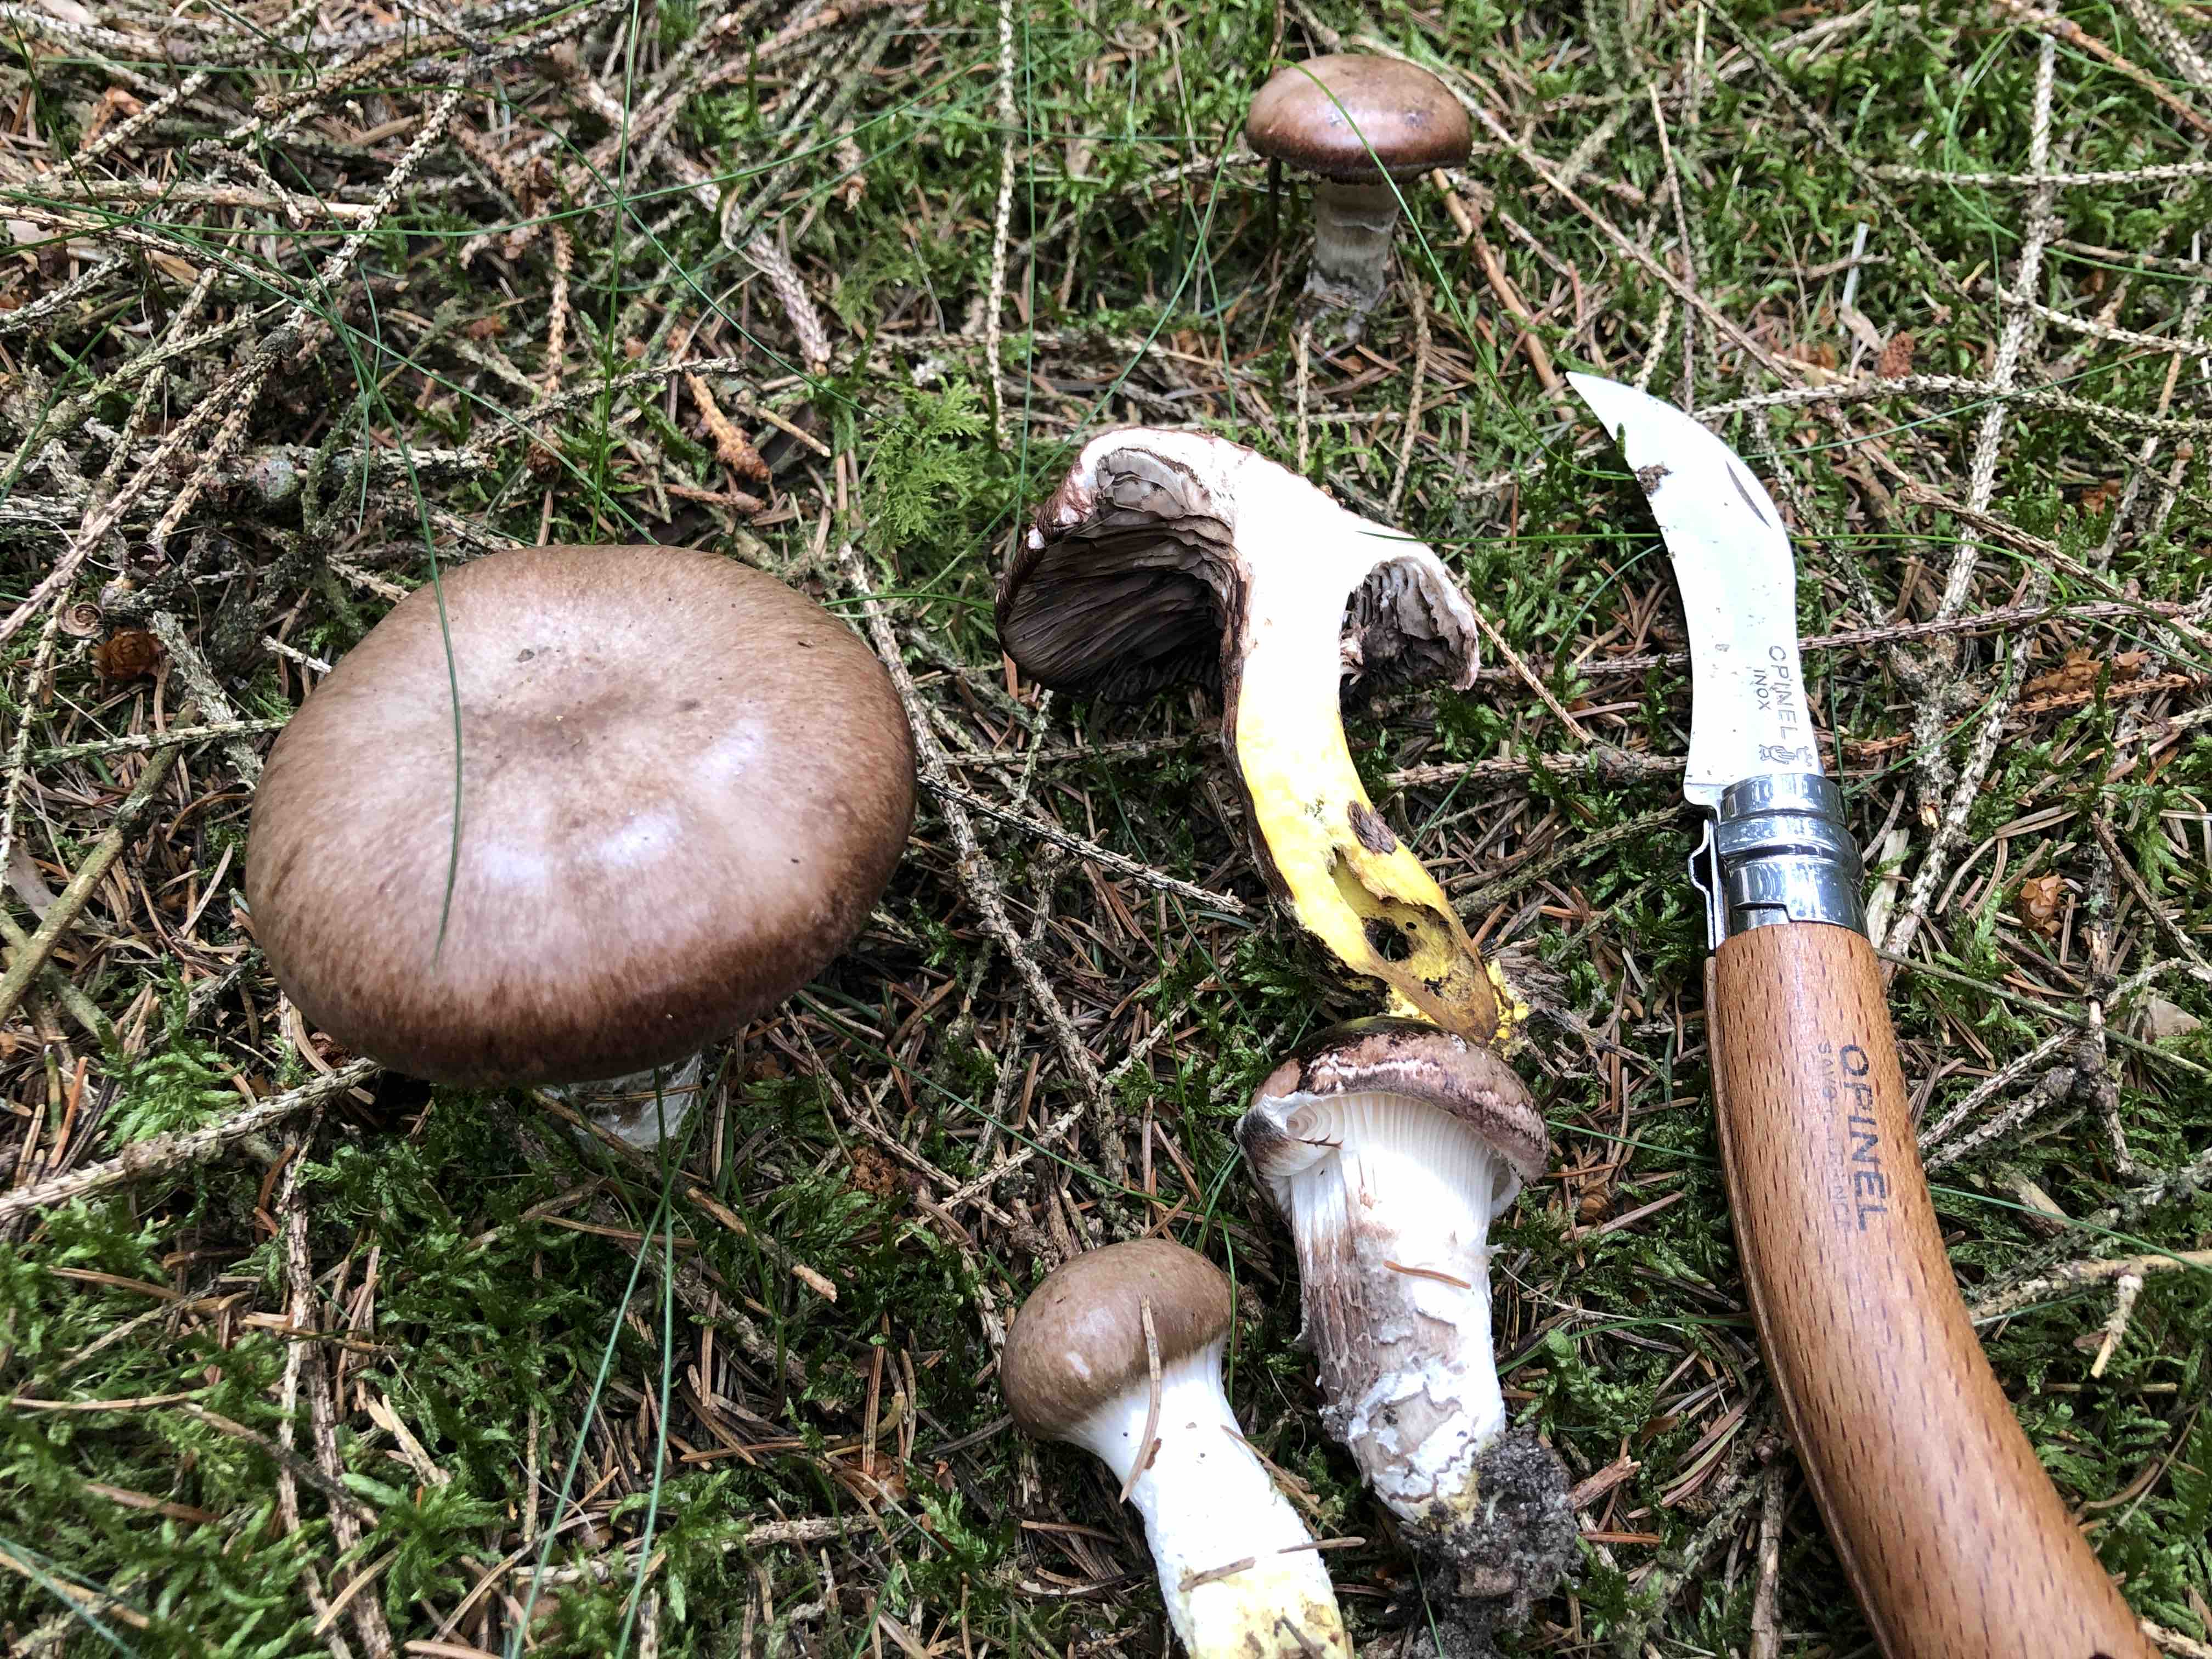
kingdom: Fungi
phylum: Basidiomycota
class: Agaricomycetes
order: Boletales
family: Gomphidiaceae
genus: Gomphidius
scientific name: Gomphidius glutinosus
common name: grå slimslør
